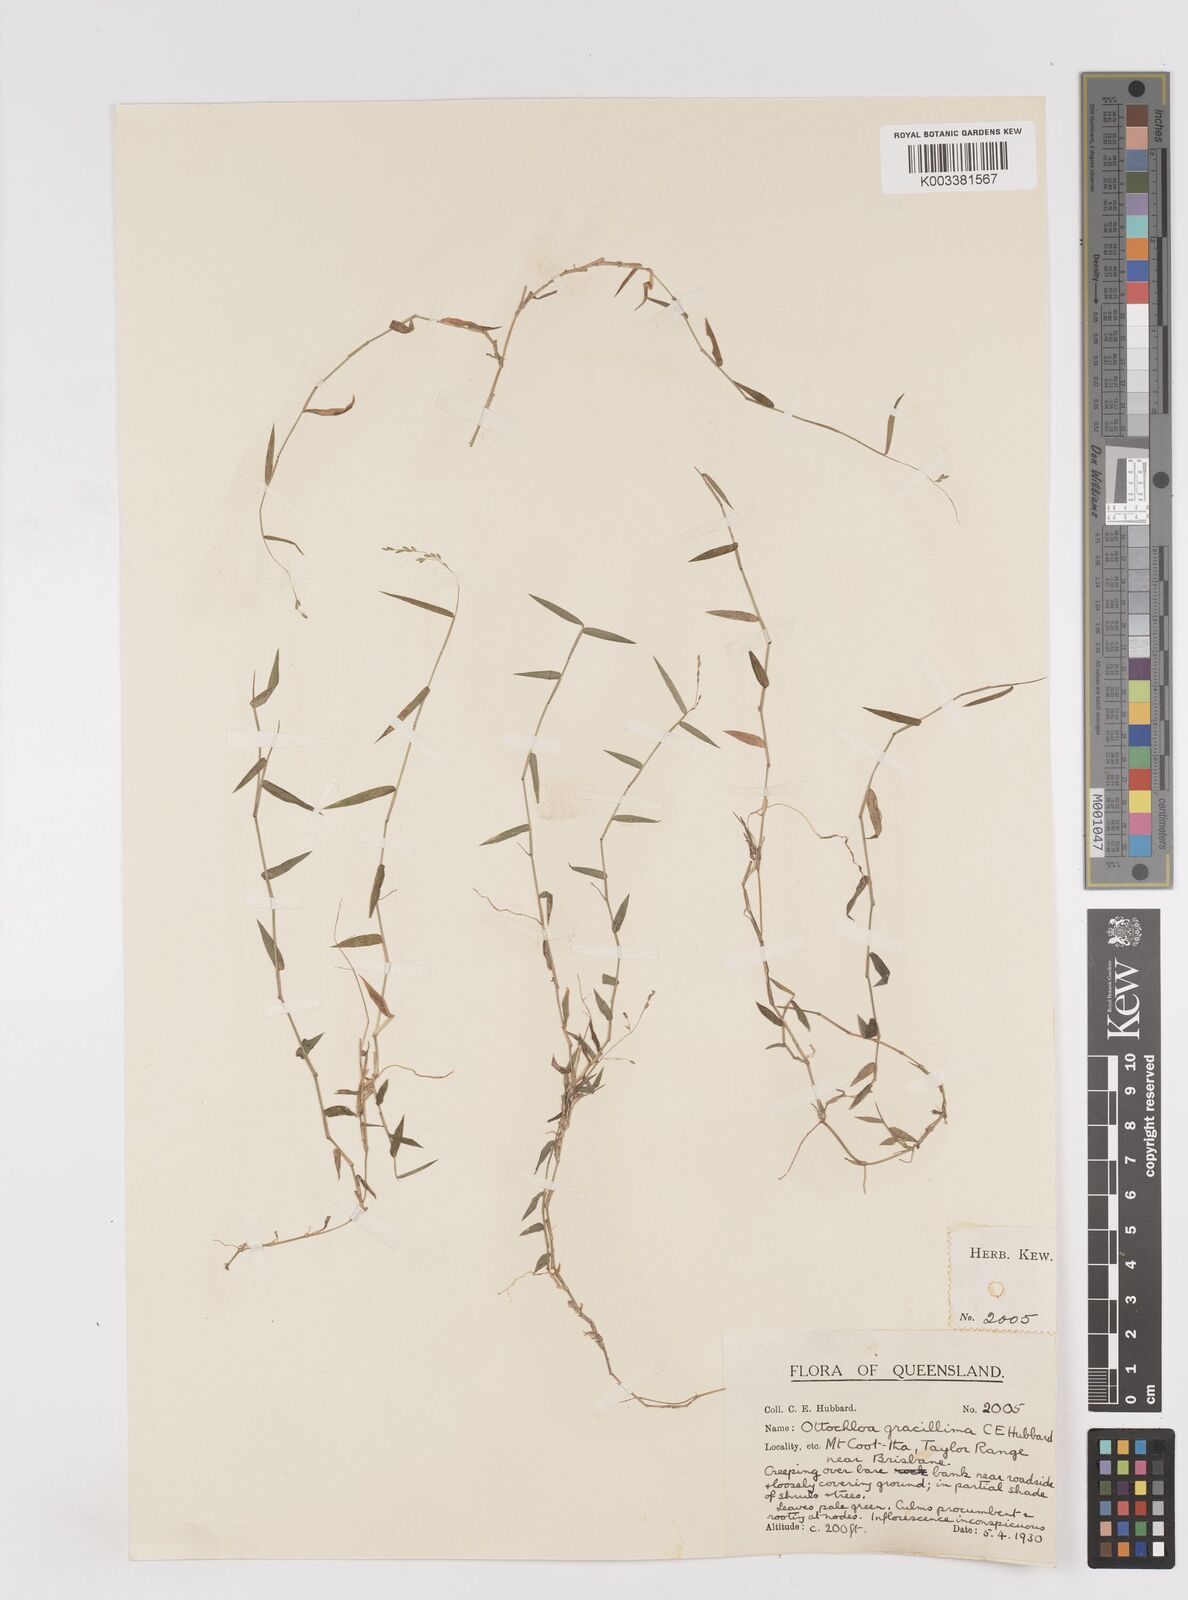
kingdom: Plantae
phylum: Tracheophyta
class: Liliopsida
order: Poales
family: Poaceae
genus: Ottochloa
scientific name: Ottochloa gracillima
